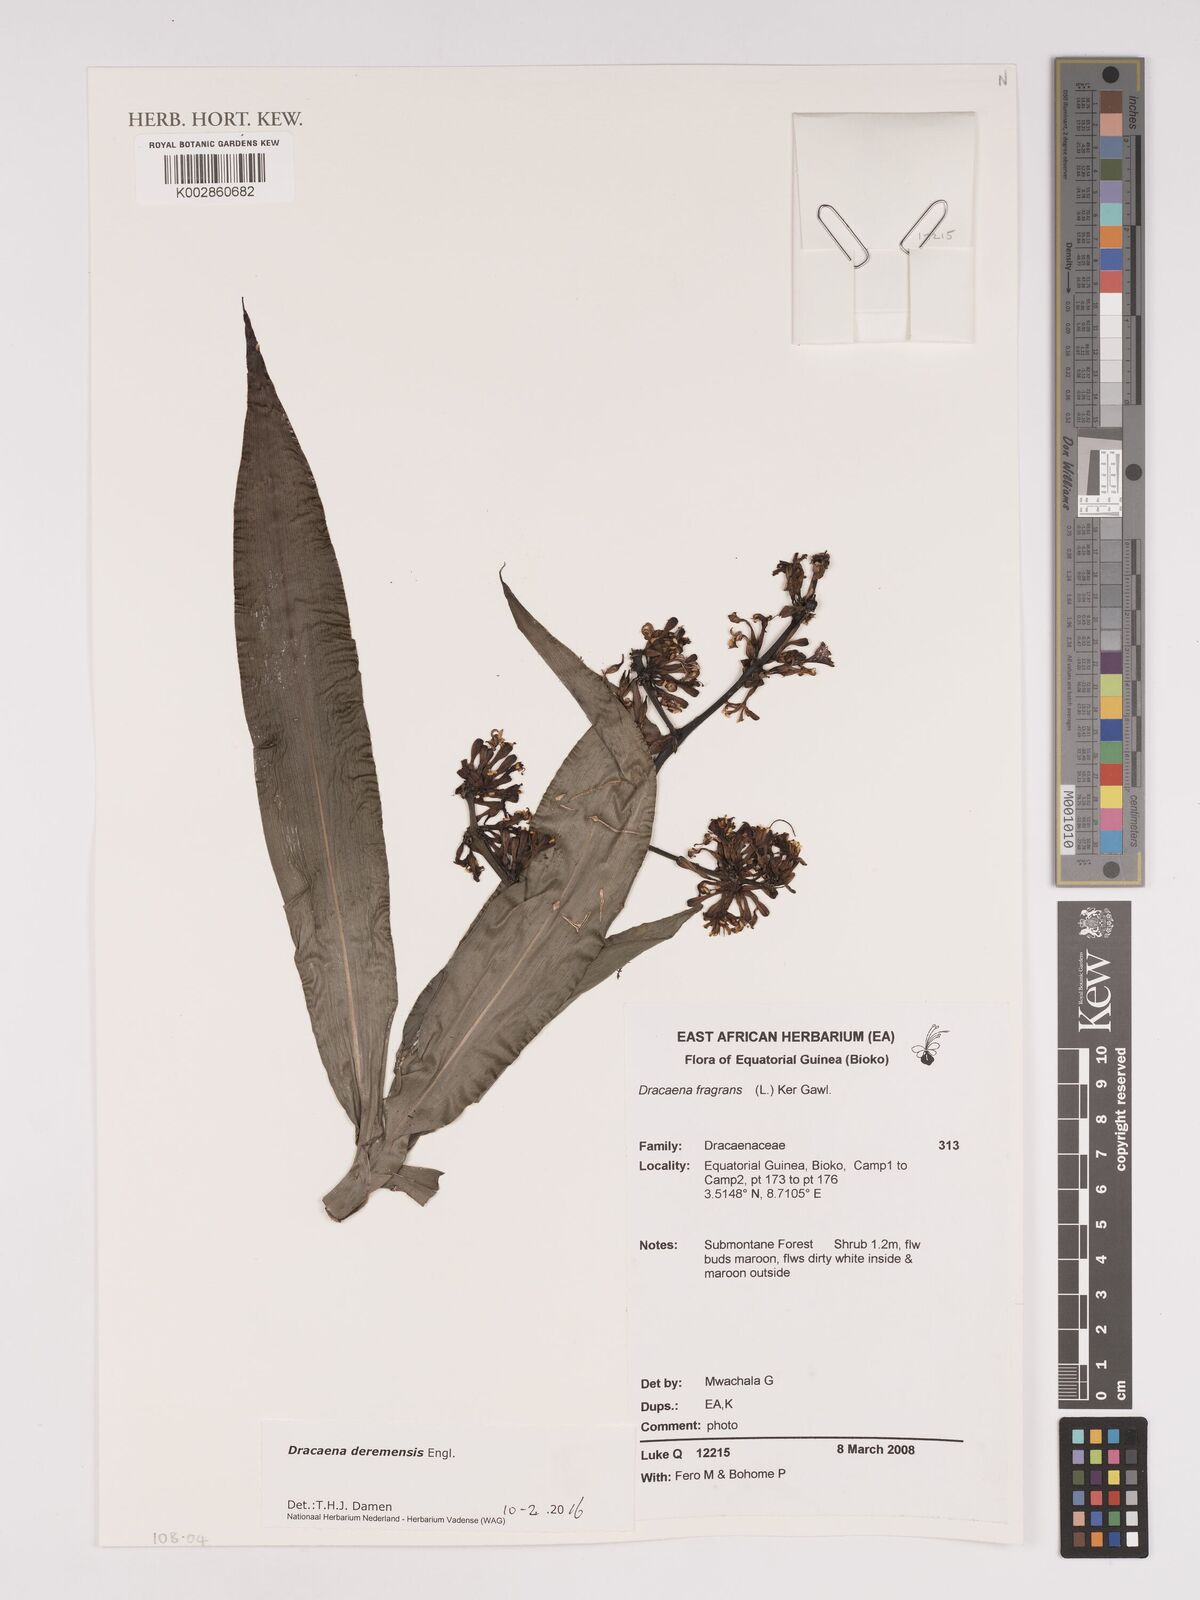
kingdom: Plantae
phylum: Tracheophyta
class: Liliopsida
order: Asparagales
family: Asparagaceae
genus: Dracaena
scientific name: Dracaena fragrans
